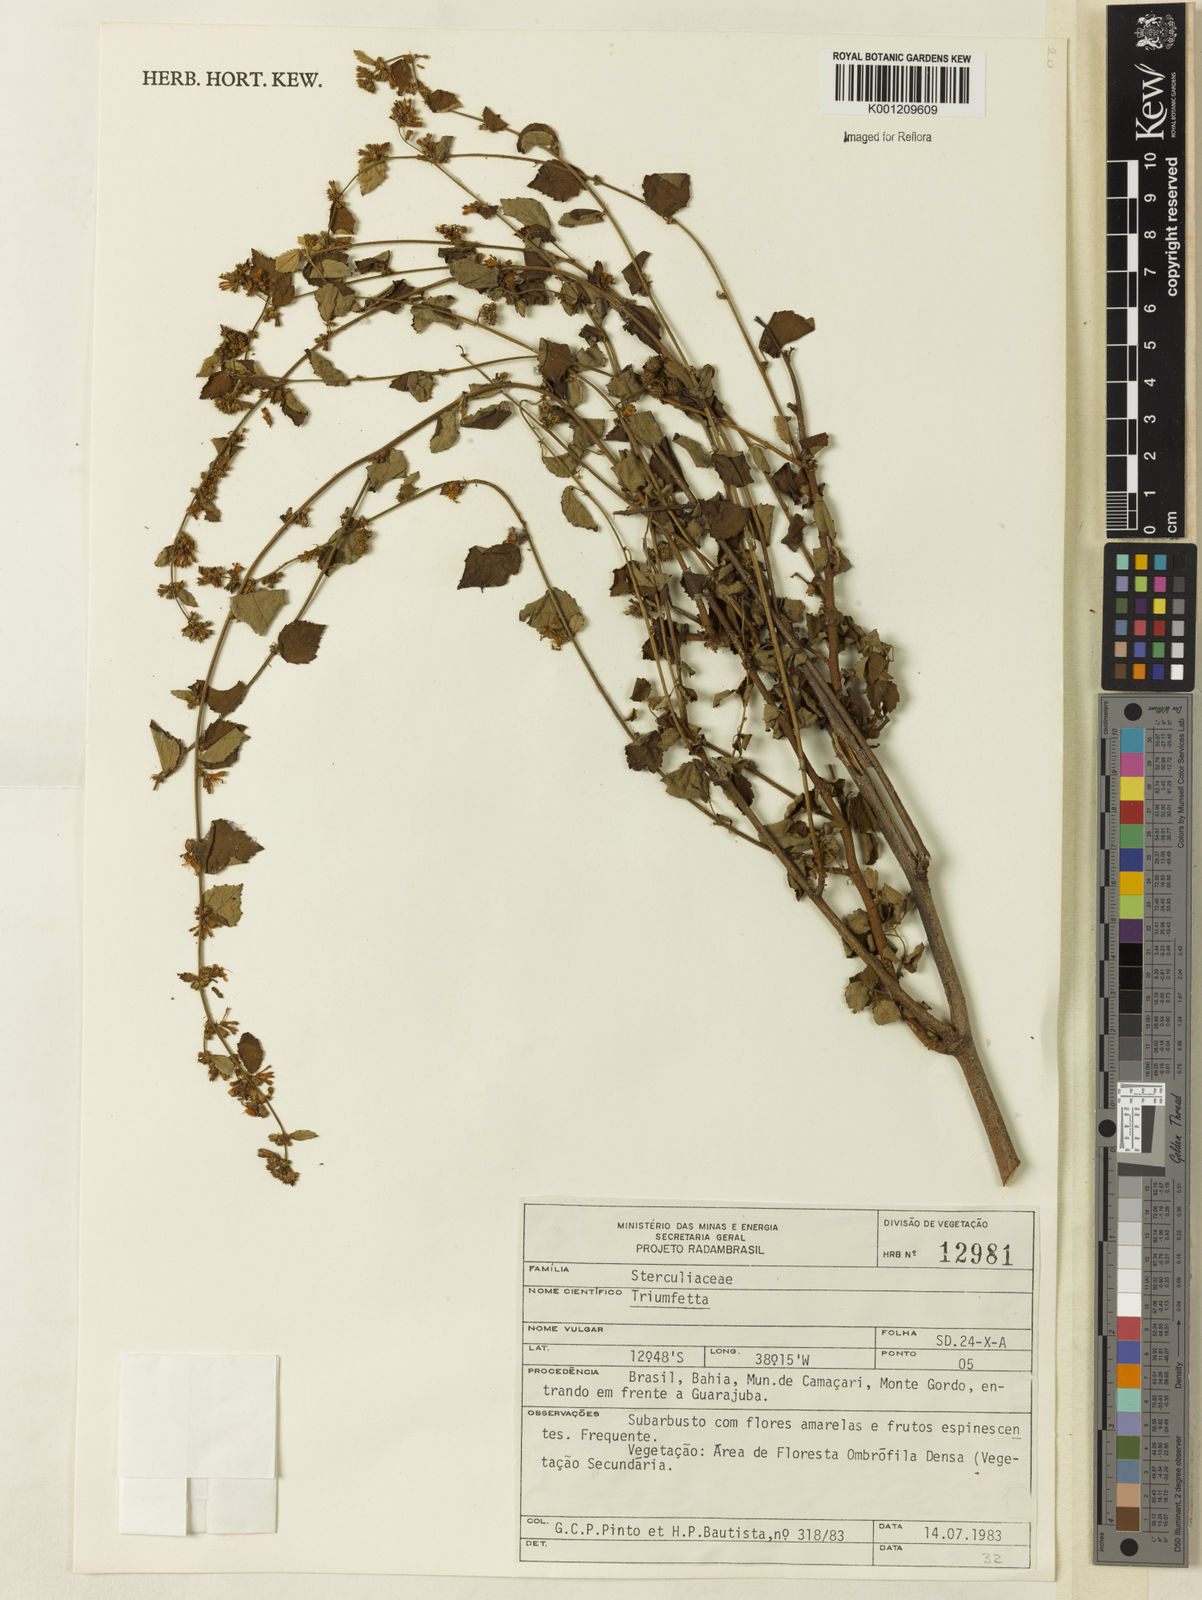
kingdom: Plantae
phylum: Tracheophyta
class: Magnoliopsida
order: Malvales
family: Malvaceae
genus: Triumfetta
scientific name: Triumfetta
